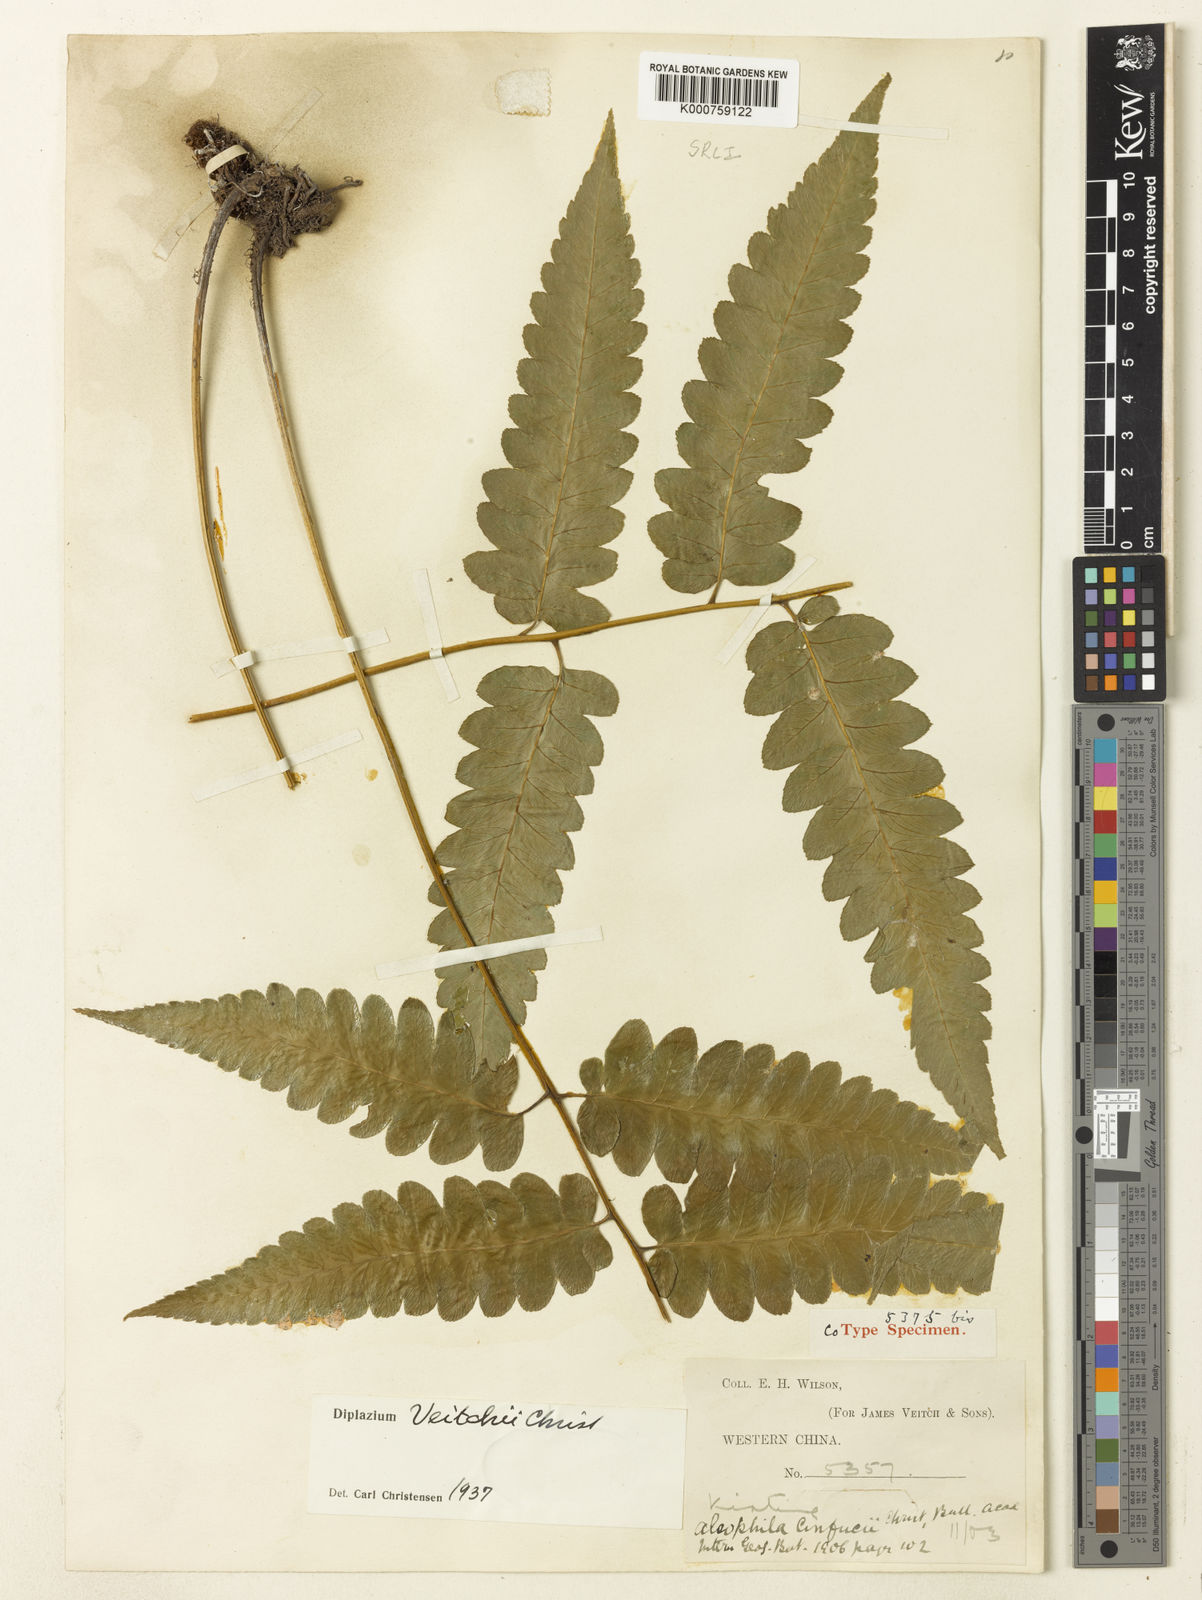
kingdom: Plantae
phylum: Tracheophyta
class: Polypodiopsida
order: Polypodiales
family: Athyriaceae
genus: Diplazium
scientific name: Diplazium dilatatum
